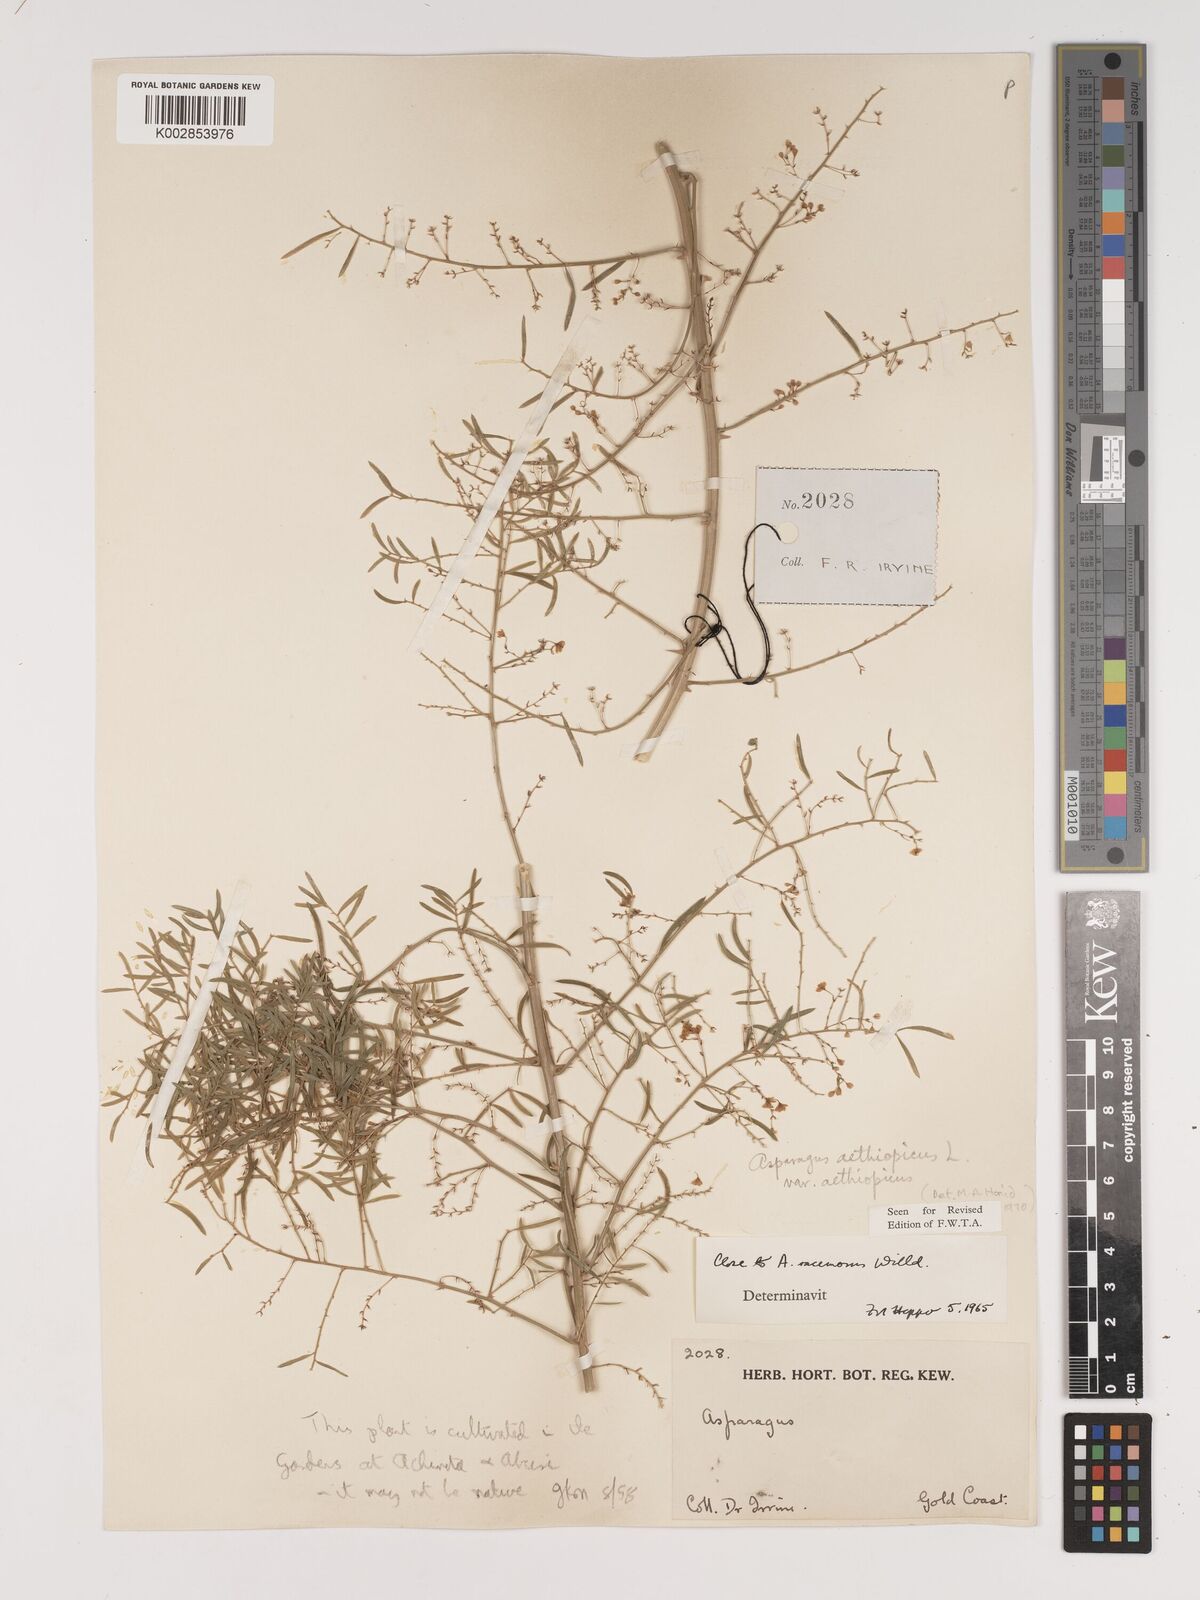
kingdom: Plantae
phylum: Tracheophyta
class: Liliopsida
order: Asparagales
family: Asparagaceae
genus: Asparagus
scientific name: Asparagus aethiopicus
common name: Sprenger's asparagus fern
